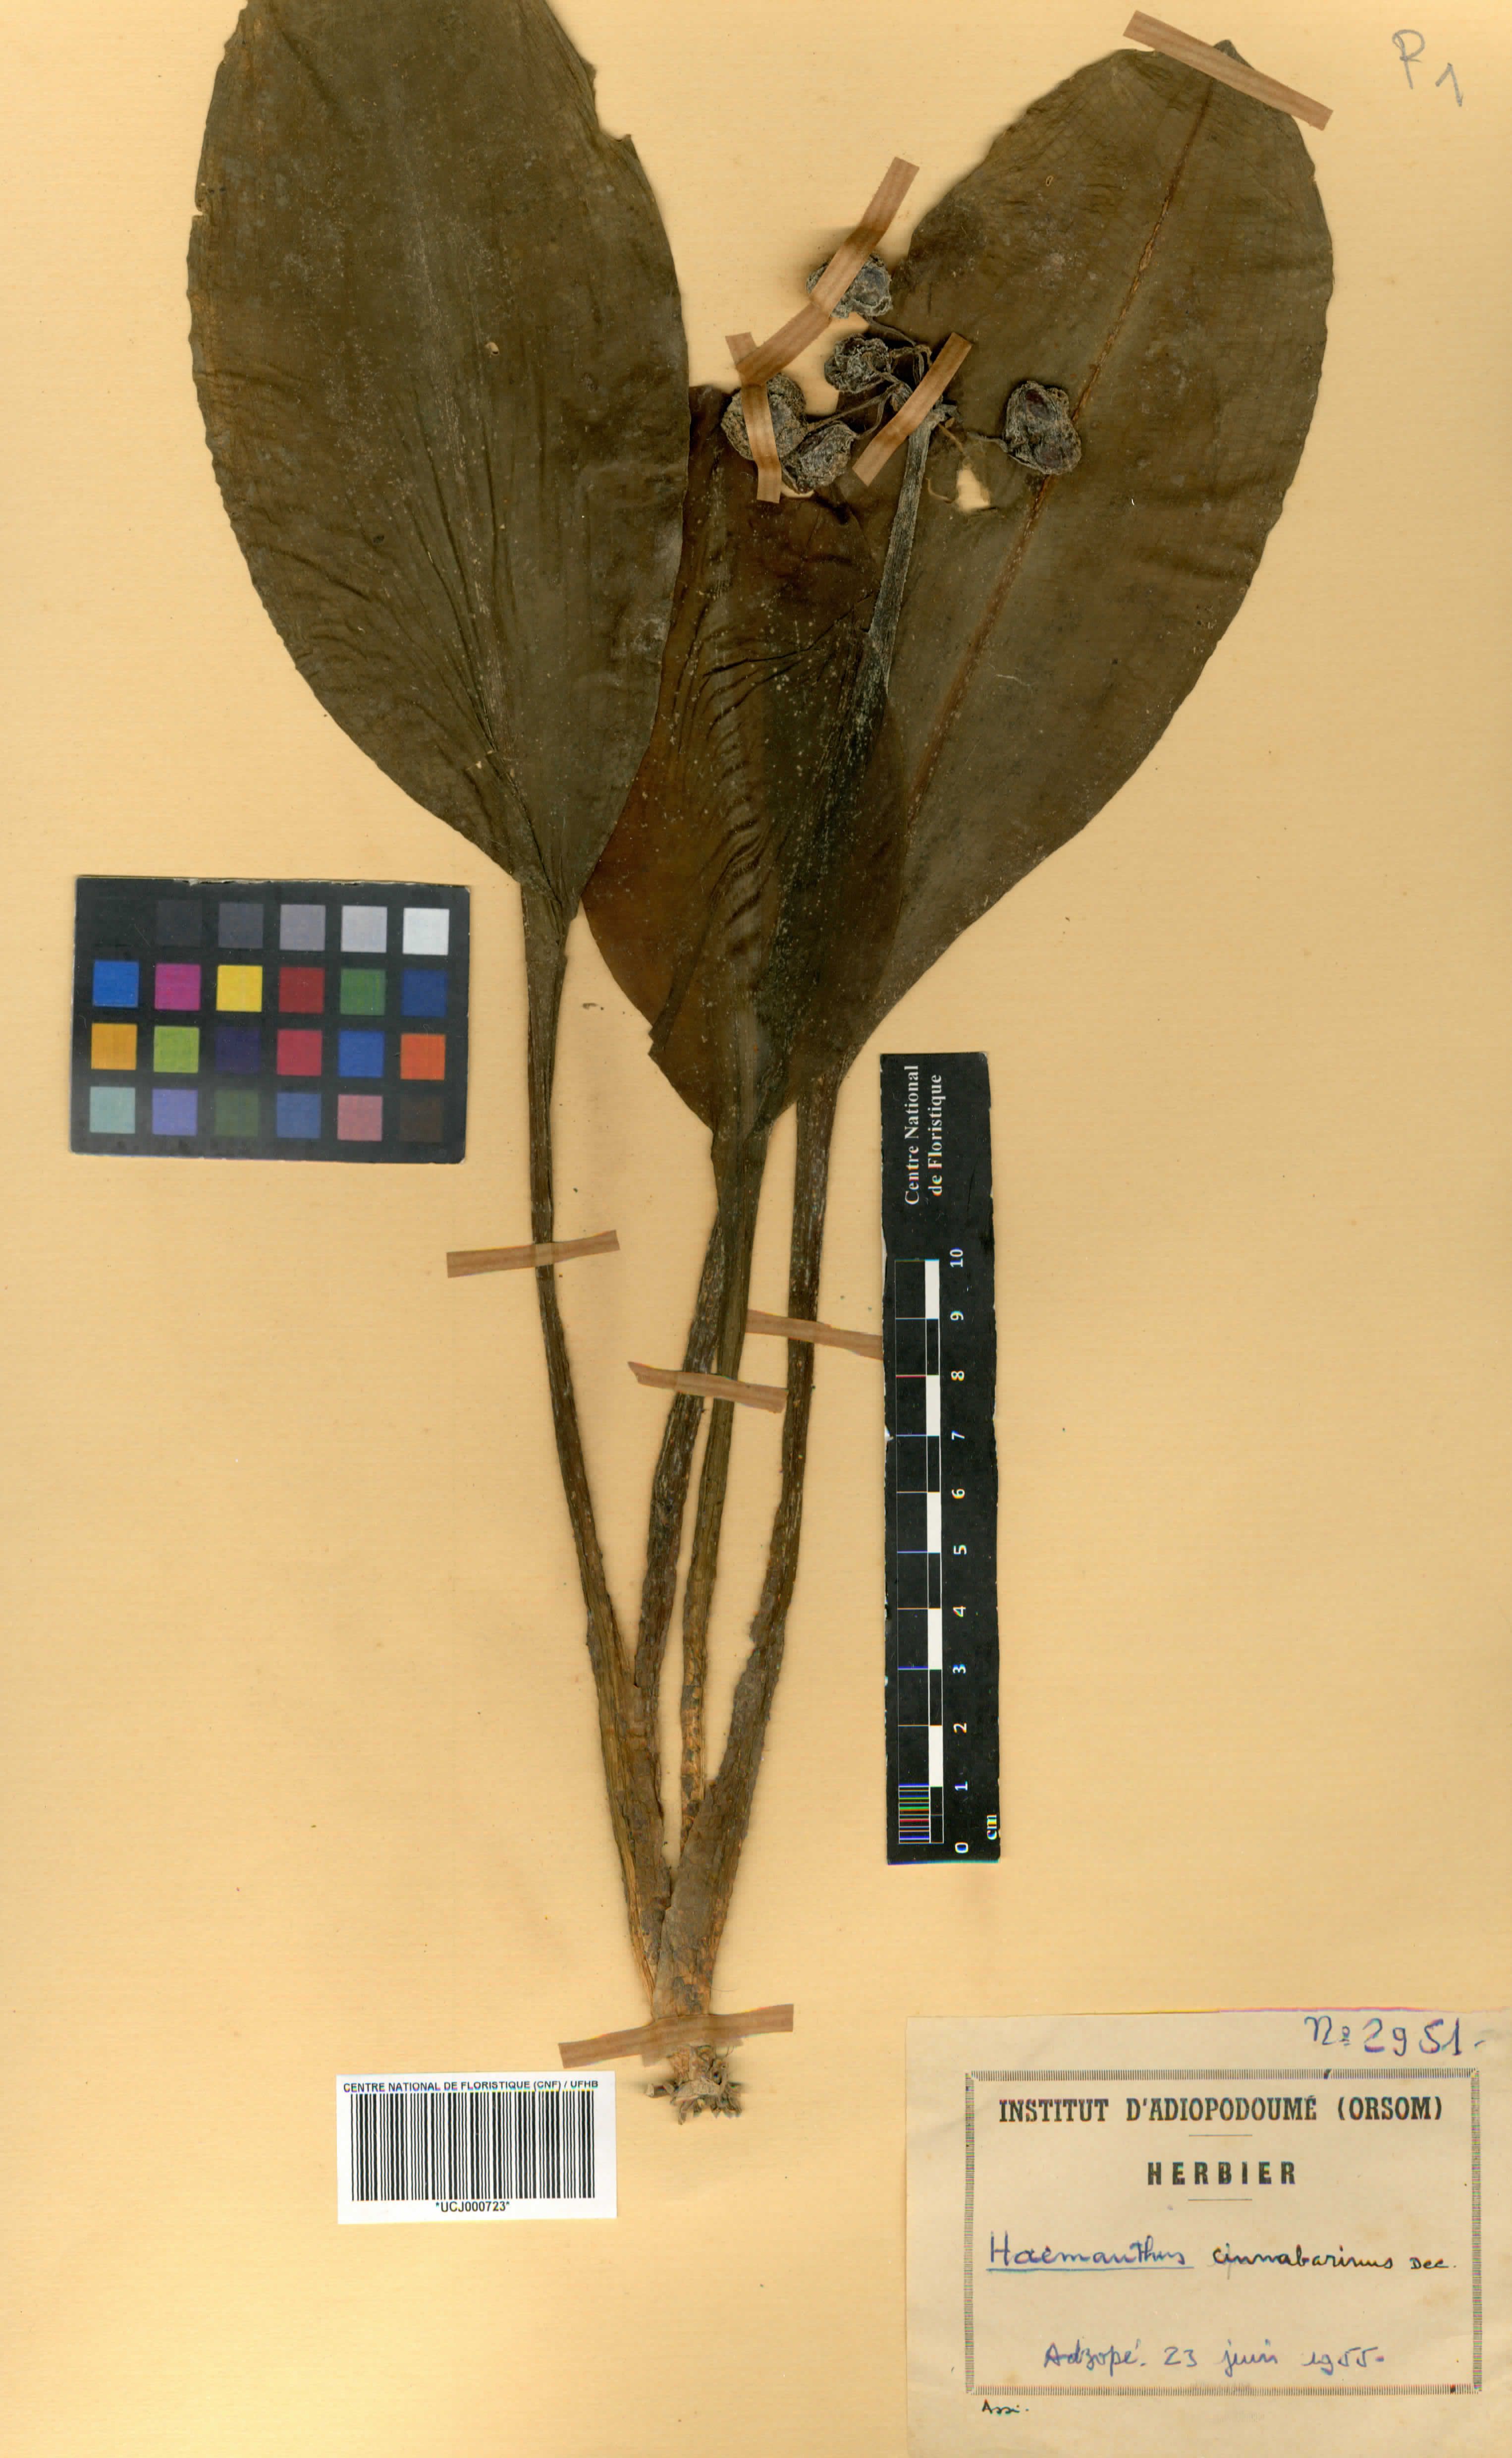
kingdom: Plantae
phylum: Tracheophyta
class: Liliopsida
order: Asparagales
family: Amaryllidaceae
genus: Scadoxus
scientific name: Scadoxus cinnabarinus
